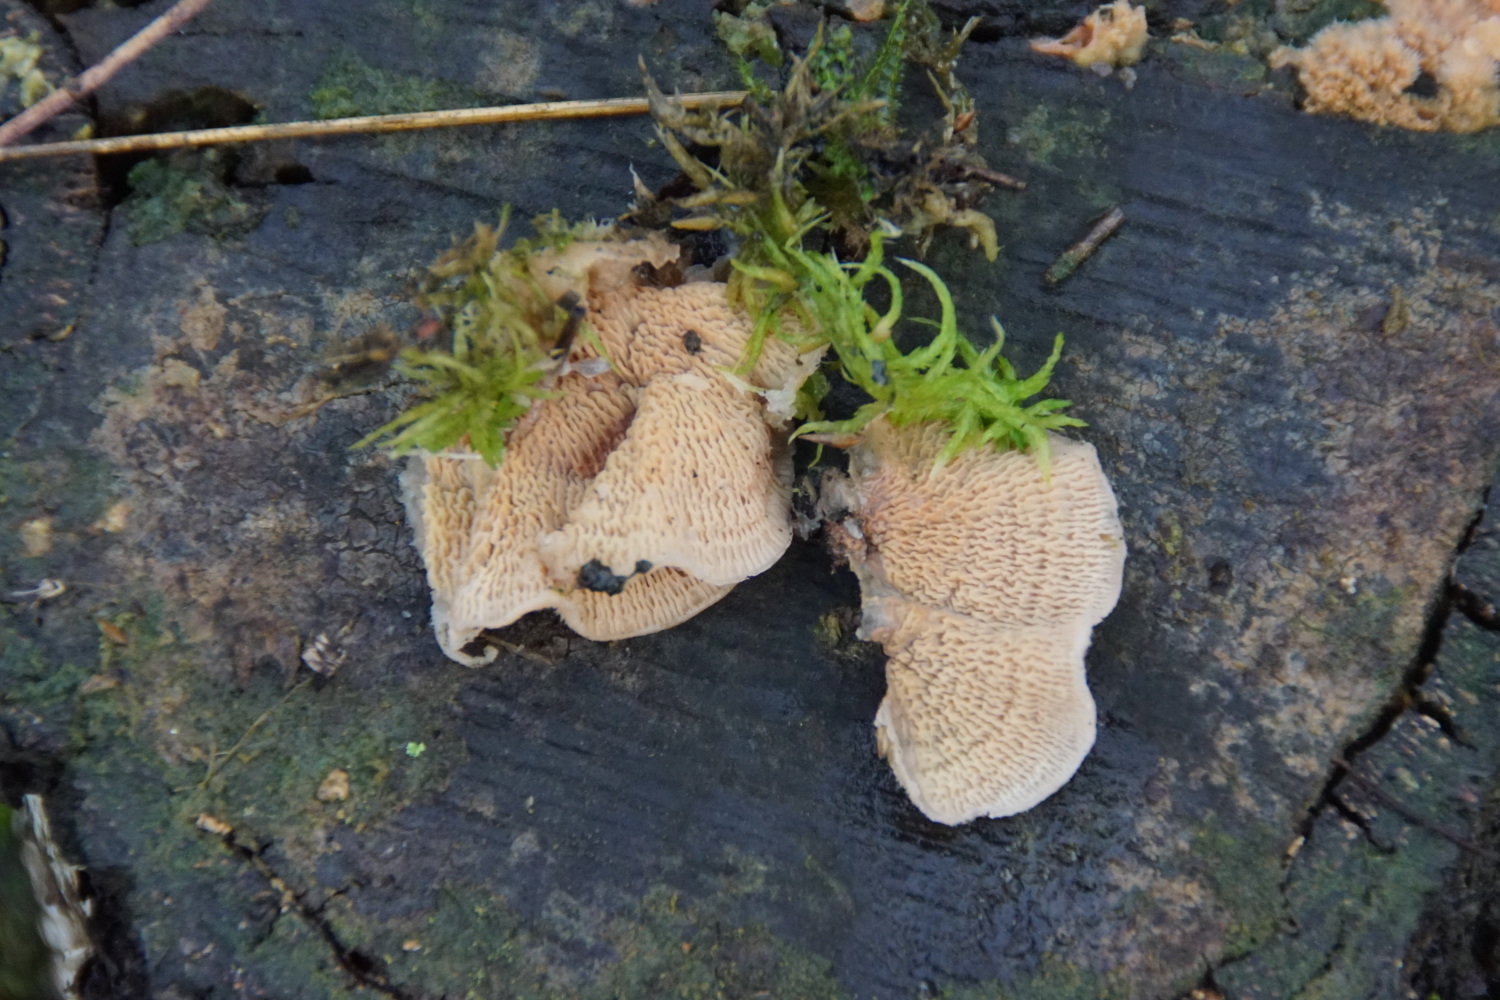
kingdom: Fungi
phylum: Basidiomycota
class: Agaricomycetes
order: Polyporales
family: Meruliaceae
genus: Phlebia
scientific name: Phlebia tremellosa
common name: bævrende åresvamp
